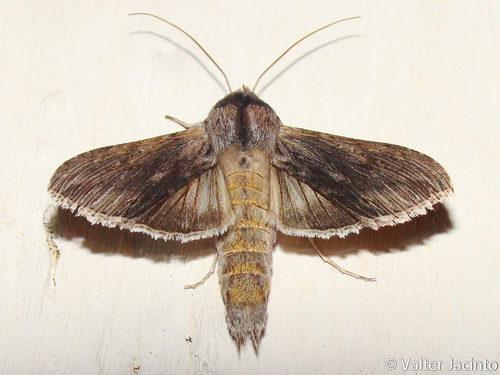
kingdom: Animalia
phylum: Arthropoda
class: Insecta
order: Lepidoptera
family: Noctuidae
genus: Cucullia
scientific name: Cucullia calendulae
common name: Marigold shark
